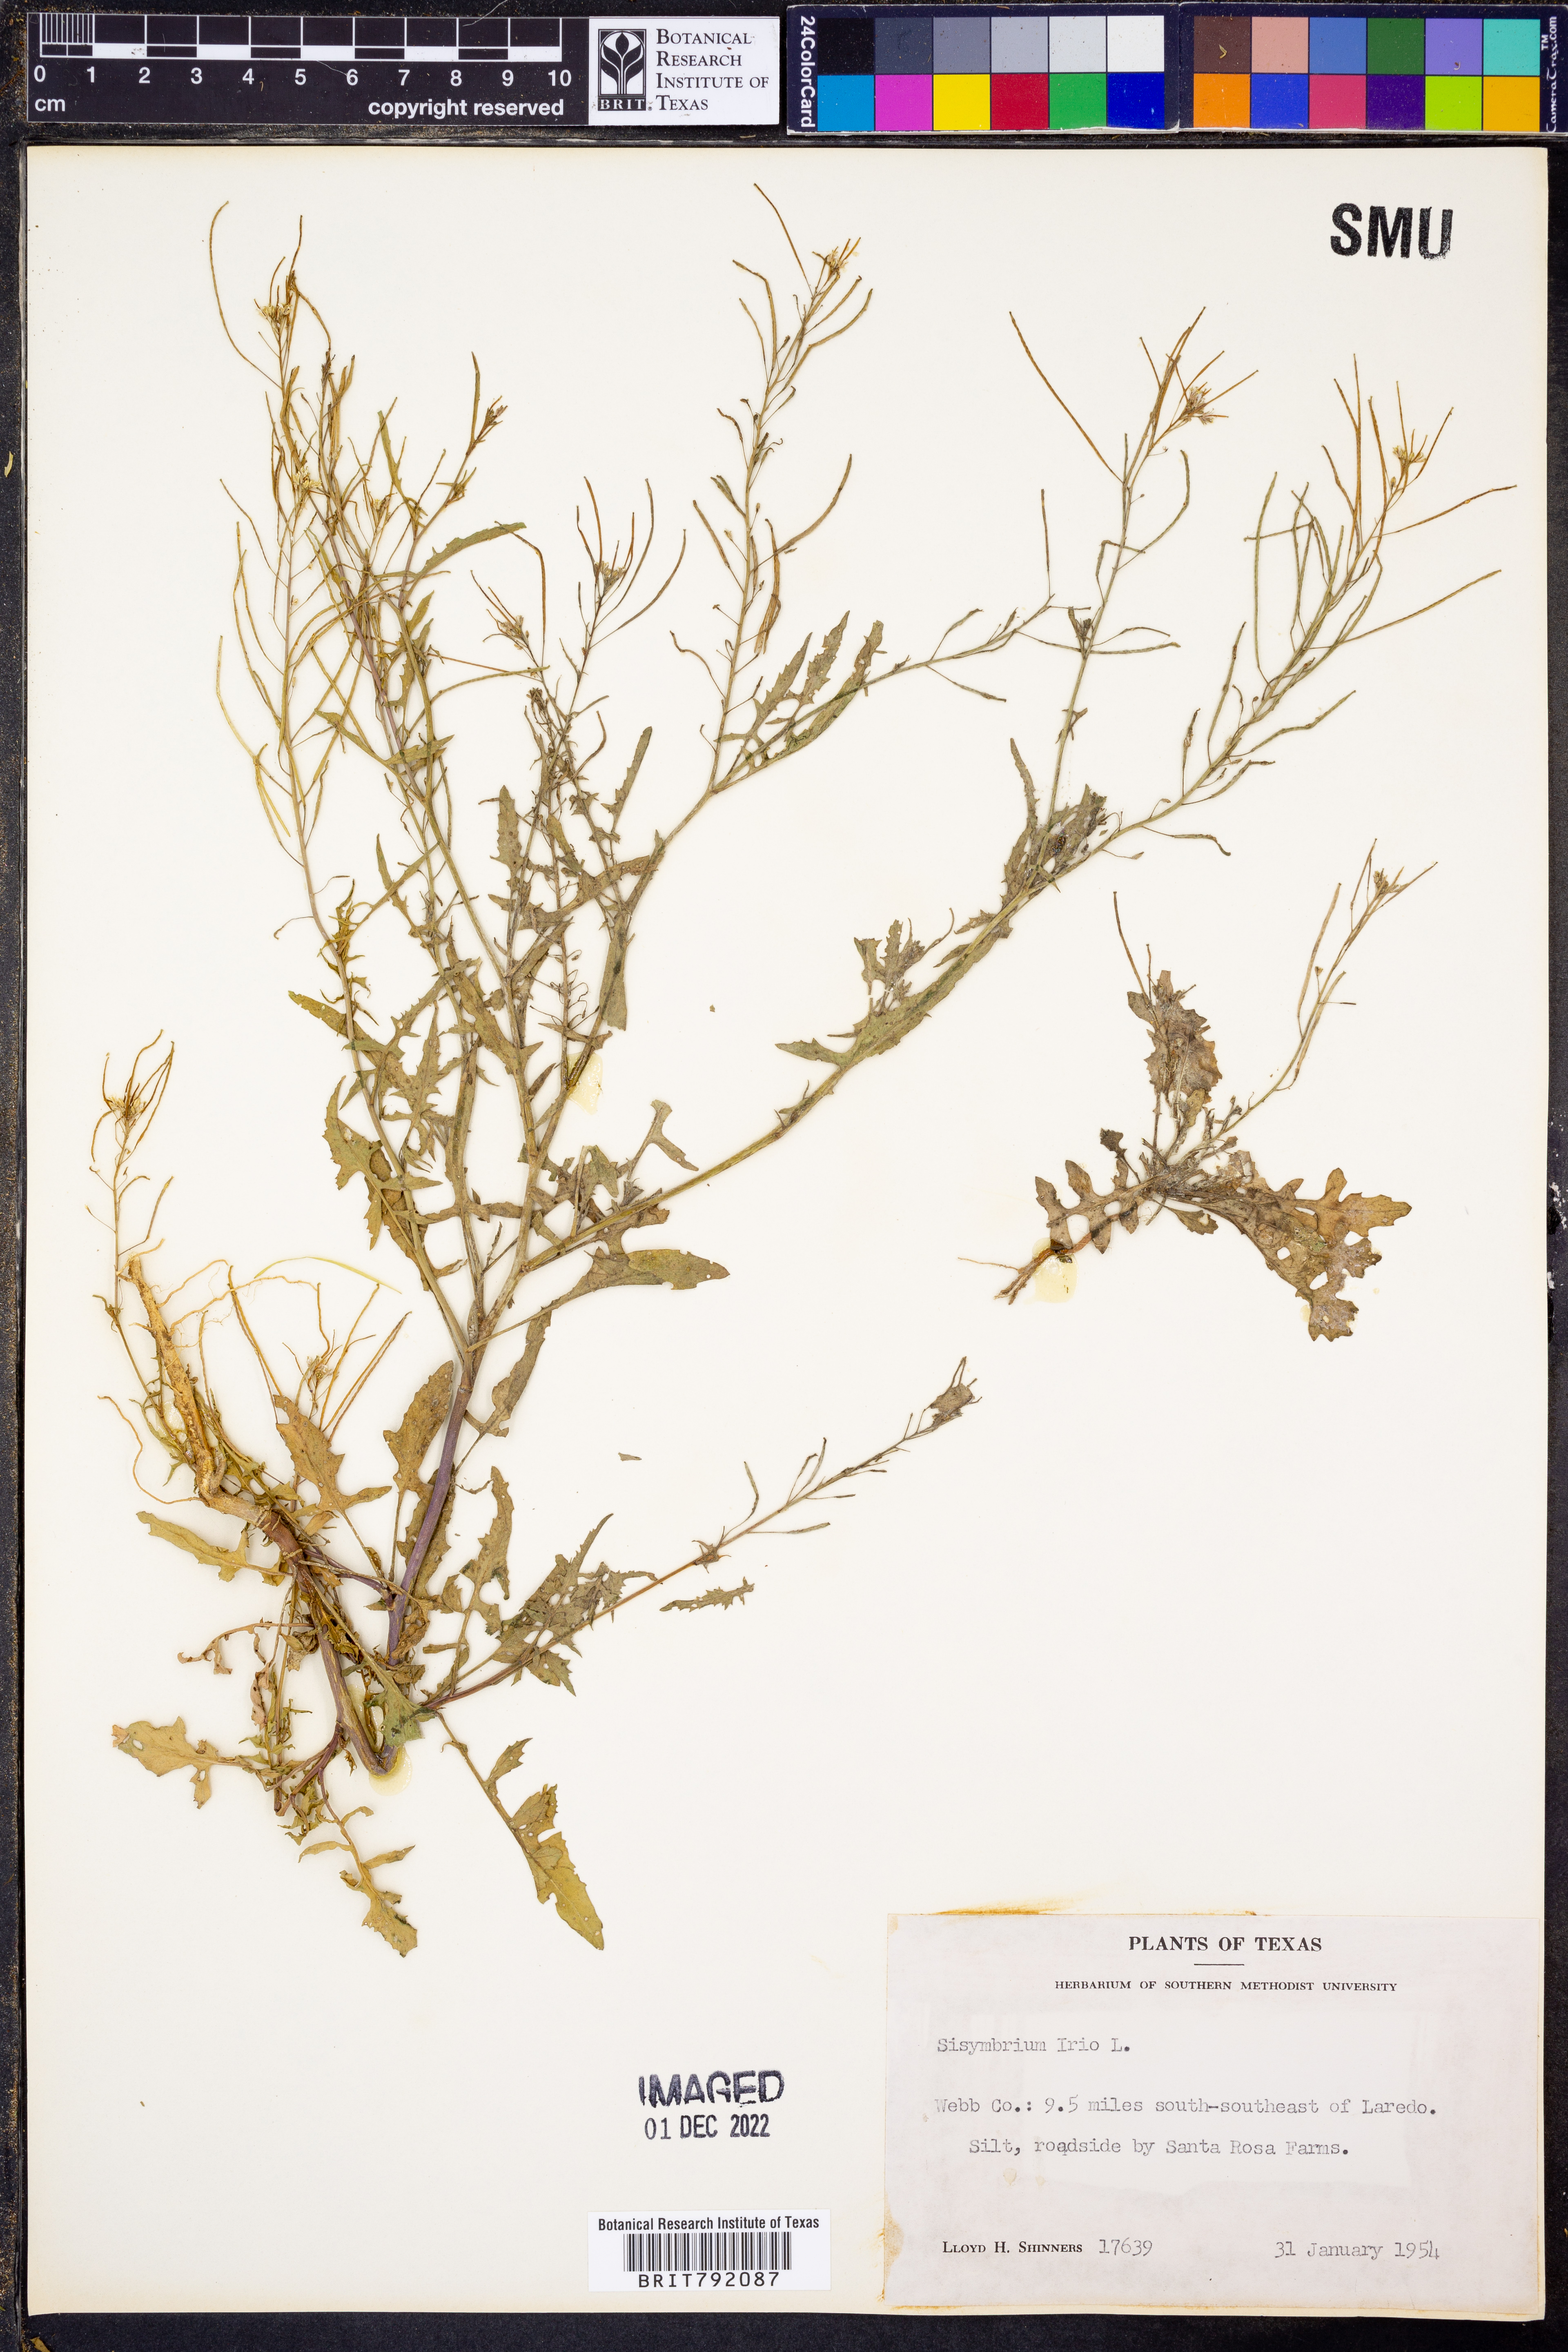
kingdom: Plantae
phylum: Tracheophyta
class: Magnoliopsida
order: Brassicales
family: Brassicaceae
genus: Sisymbrium
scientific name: Sisymbrium irio
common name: London rocket
